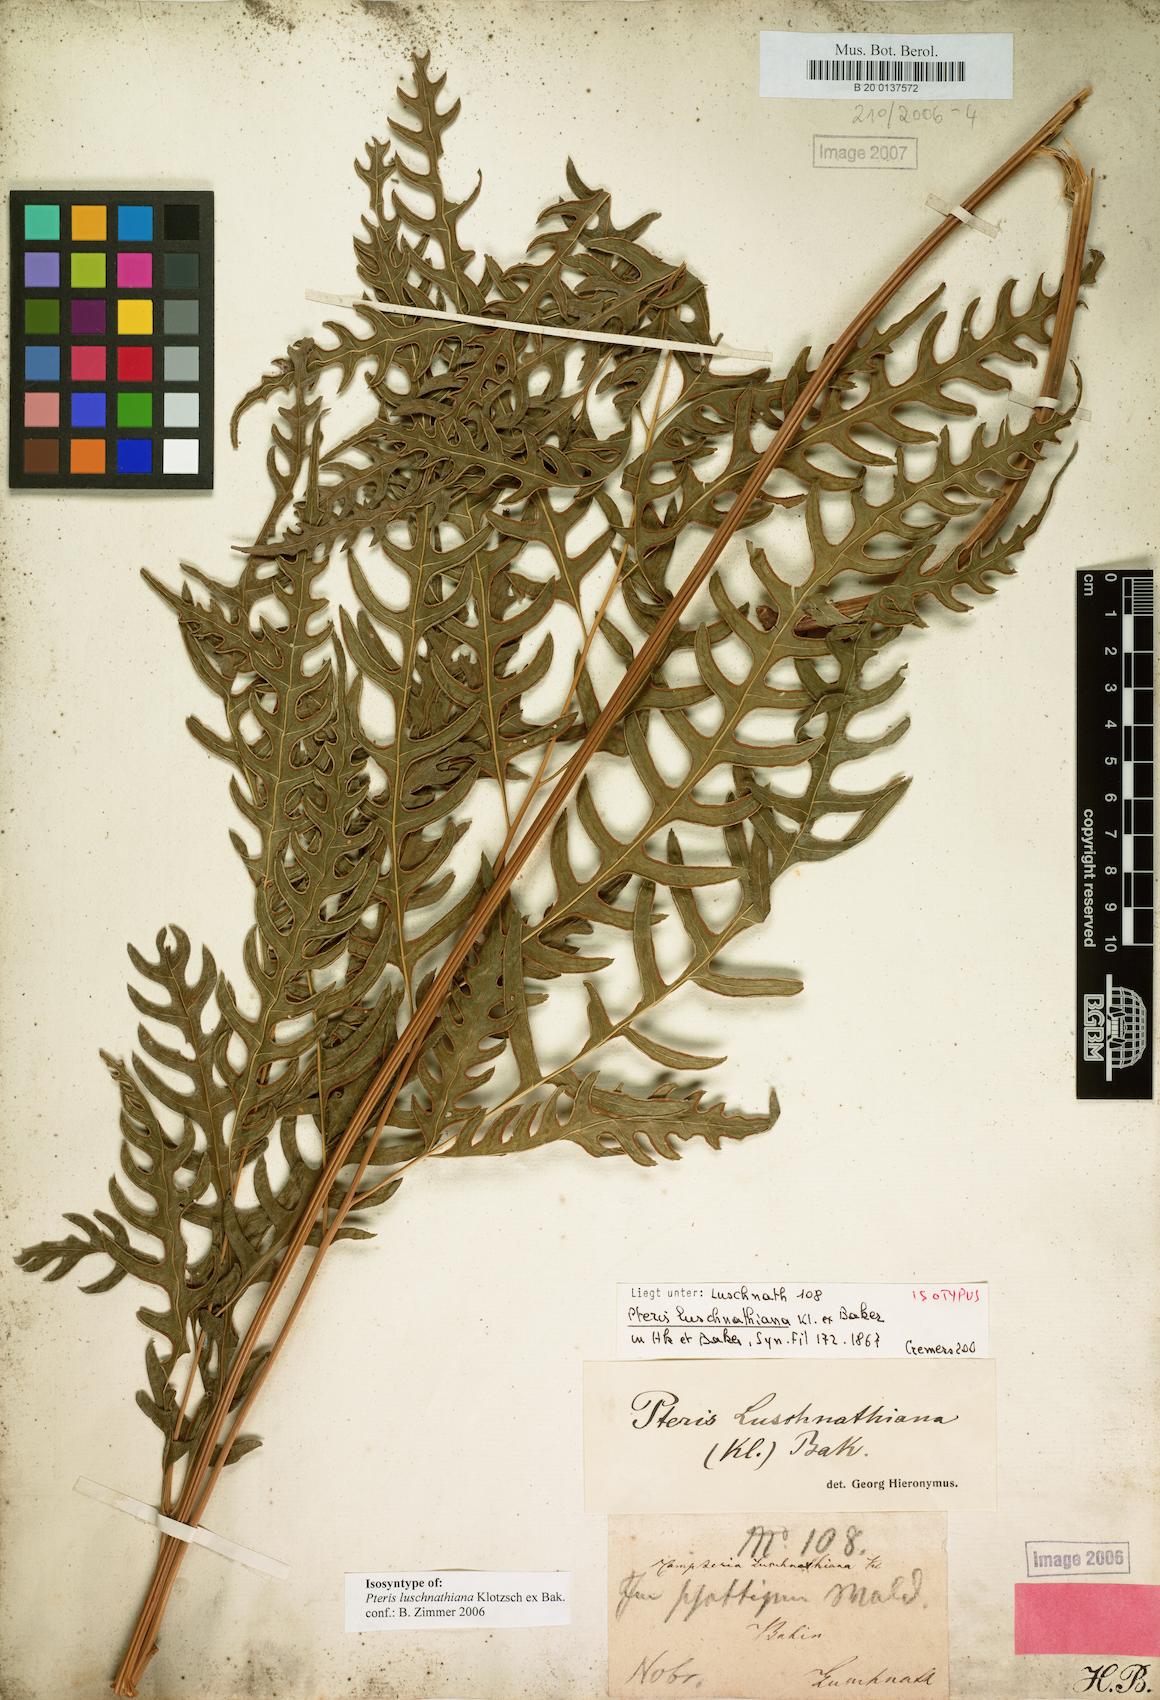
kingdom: Plantae
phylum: Tracheophyta
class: Polypodiopsida
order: Polypodiales
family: Pteridaceae
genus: Pteris
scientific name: Pteris propinqua
